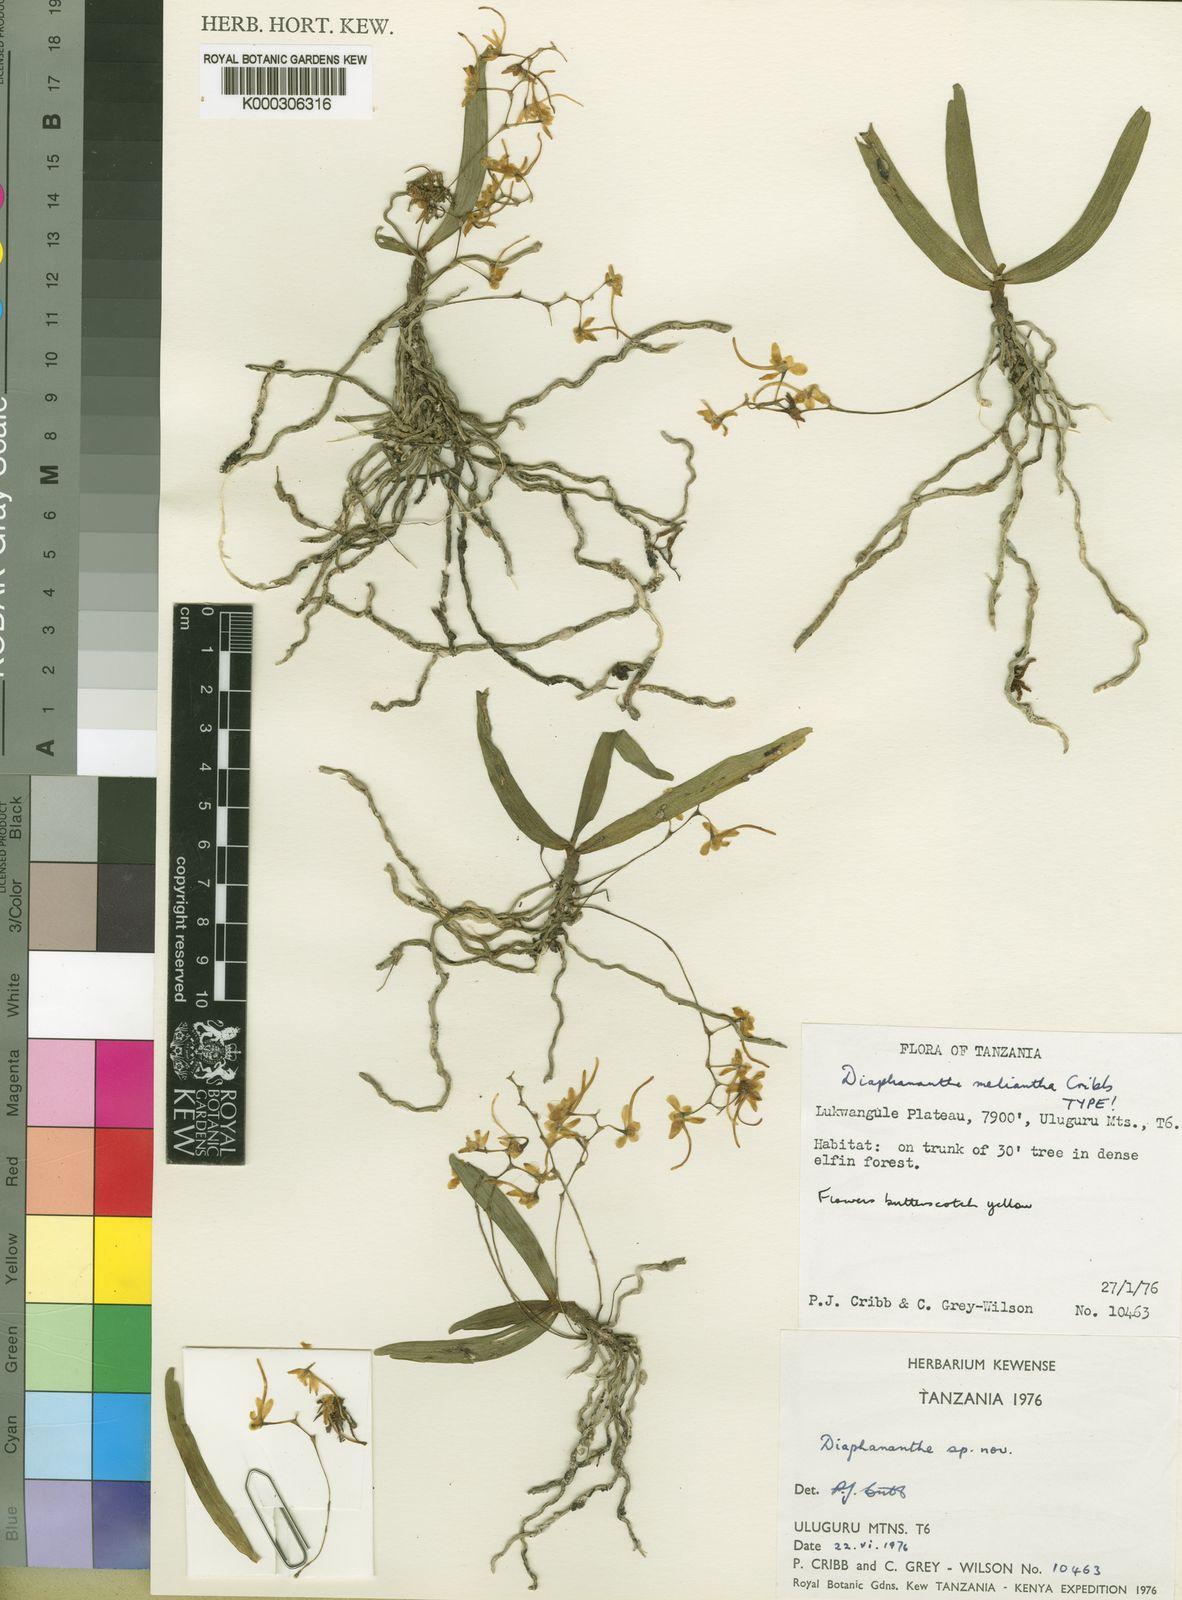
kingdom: Plantae
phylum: Tracheophyta
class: Liliopsida
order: Asparagales
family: Orchidaceae
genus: Rhipidoglossum
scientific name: Rhipidoglossum melianthum
